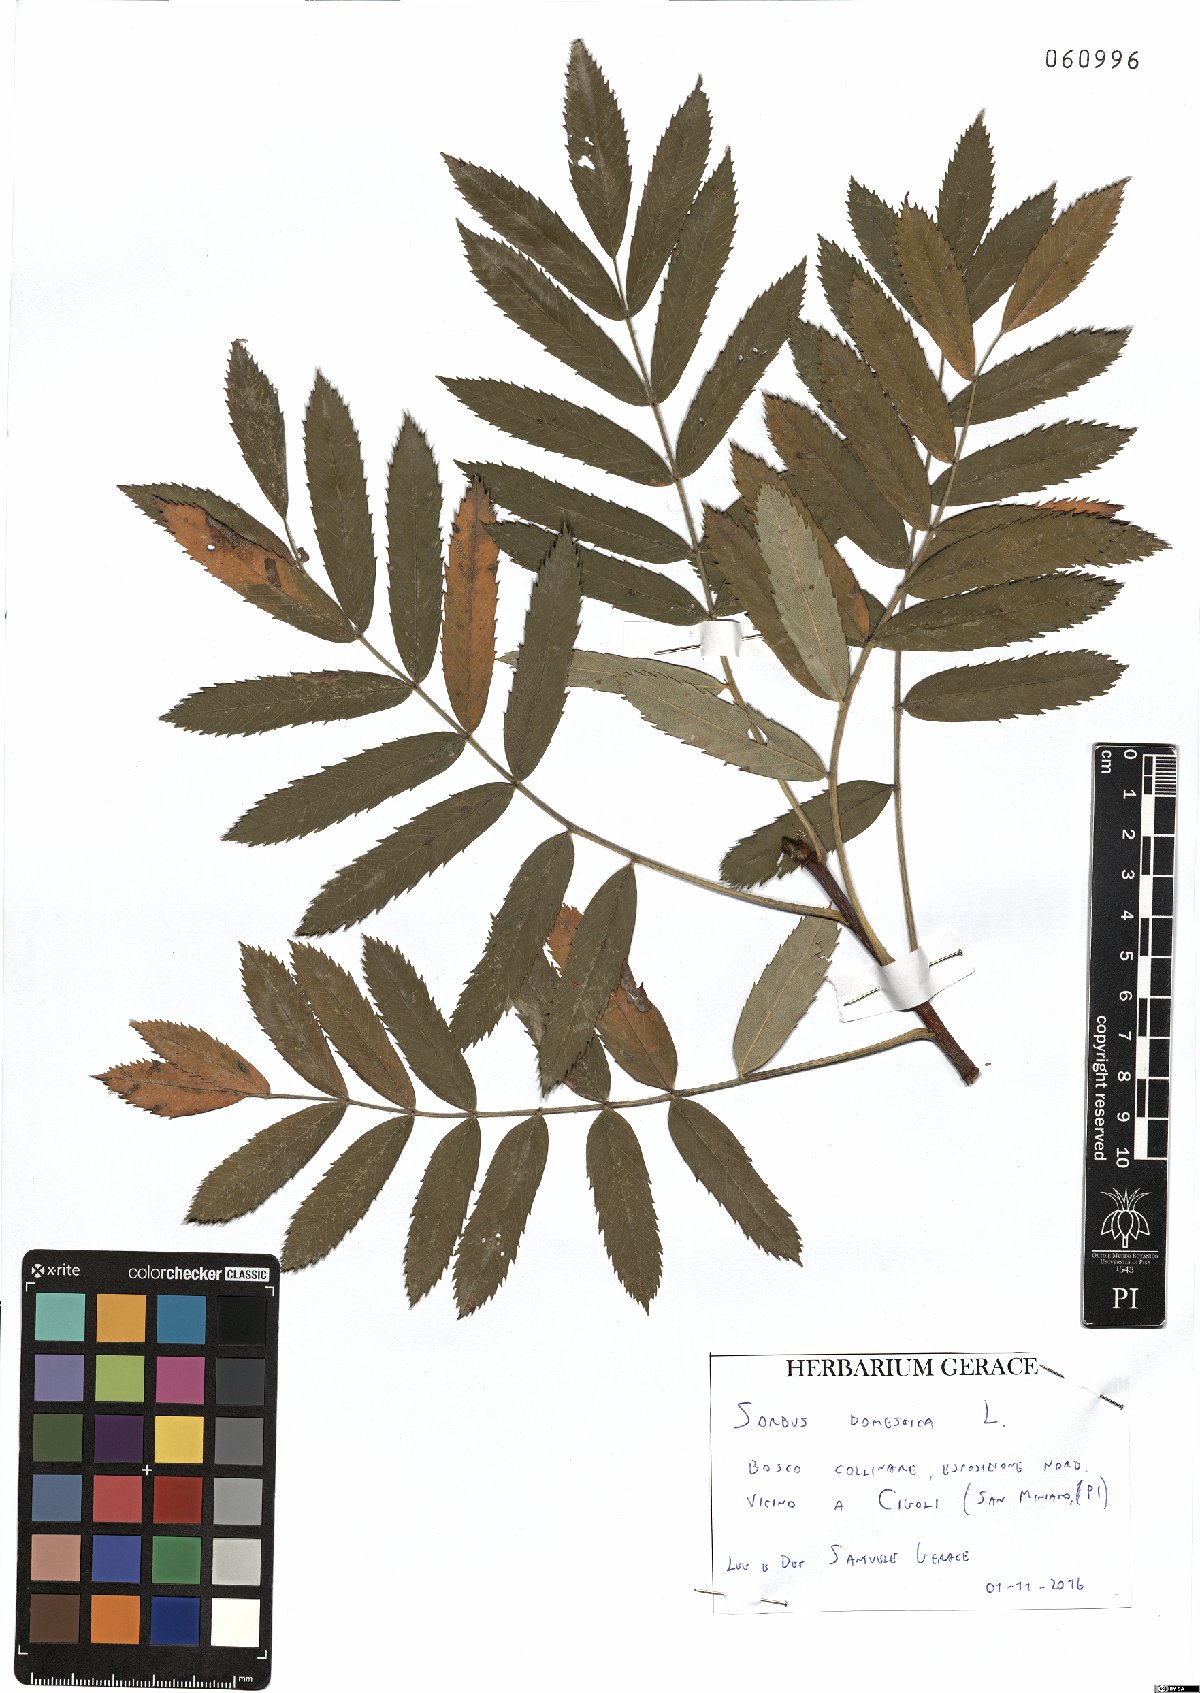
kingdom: Plantae
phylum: Tracheophyta
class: Magnoliopsida
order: Rosales
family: Rosaceae
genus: Cormus
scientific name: Cormus domestica
